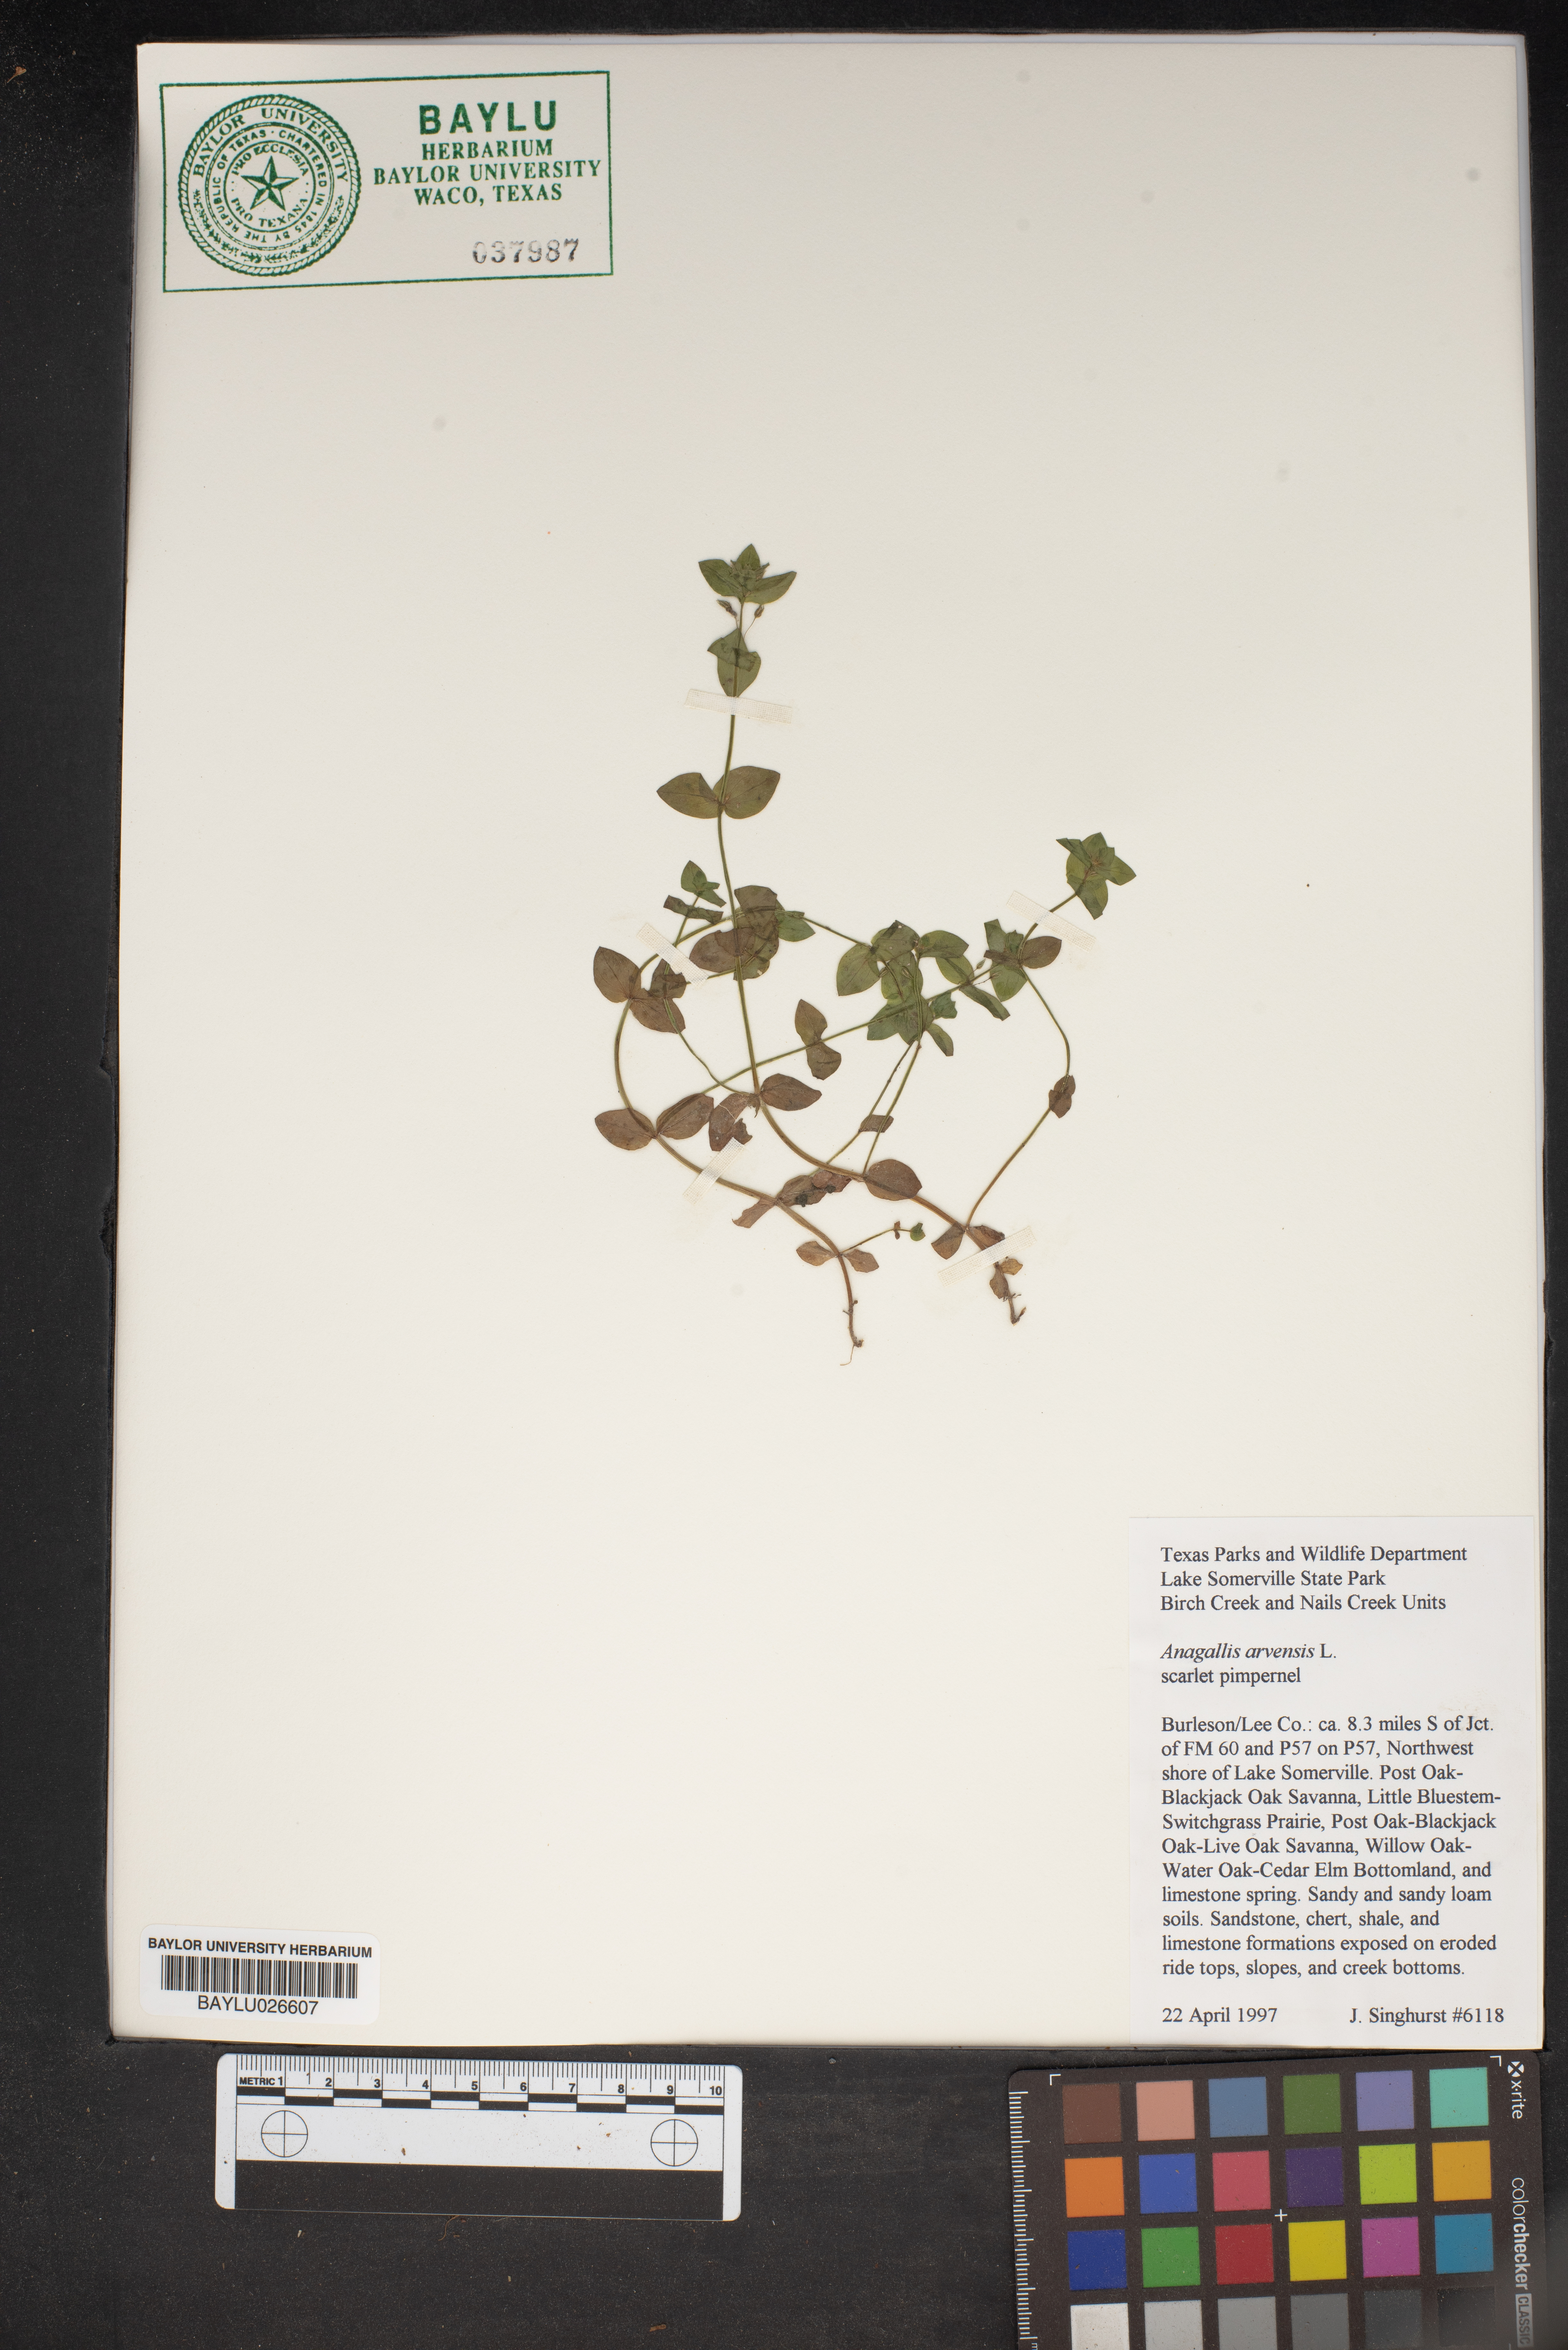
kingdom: Plantae
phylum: Tracheophyta
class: Magnoliopsida
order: Ericales
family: Primulaceae
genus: Lysimachia
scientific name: Lysimachia arvensis
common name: Scarlet pimpernel
